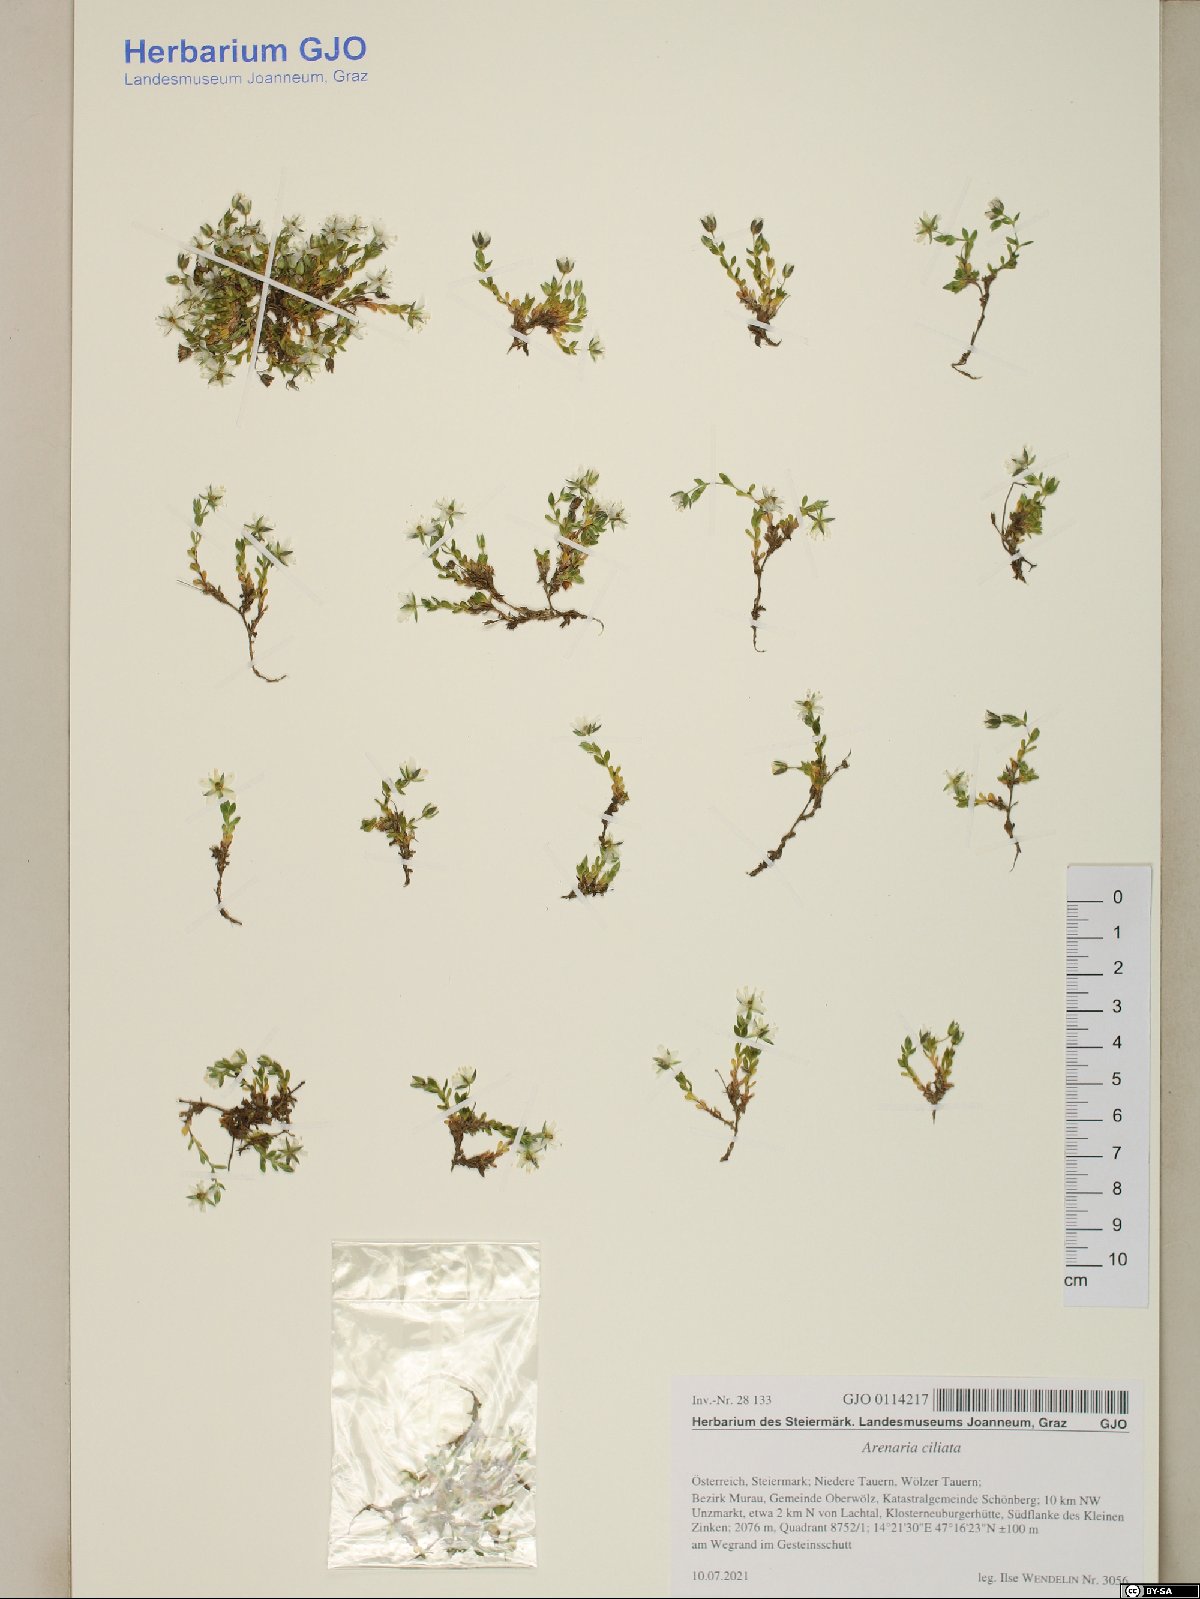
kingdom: Plantae
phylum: Tracheophyta
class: Magnoliopsida
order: Caryophyllales
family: Caryophyllaceae
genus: Arenaria
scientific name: Arenaria ciliata
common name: Fringed sandwort
